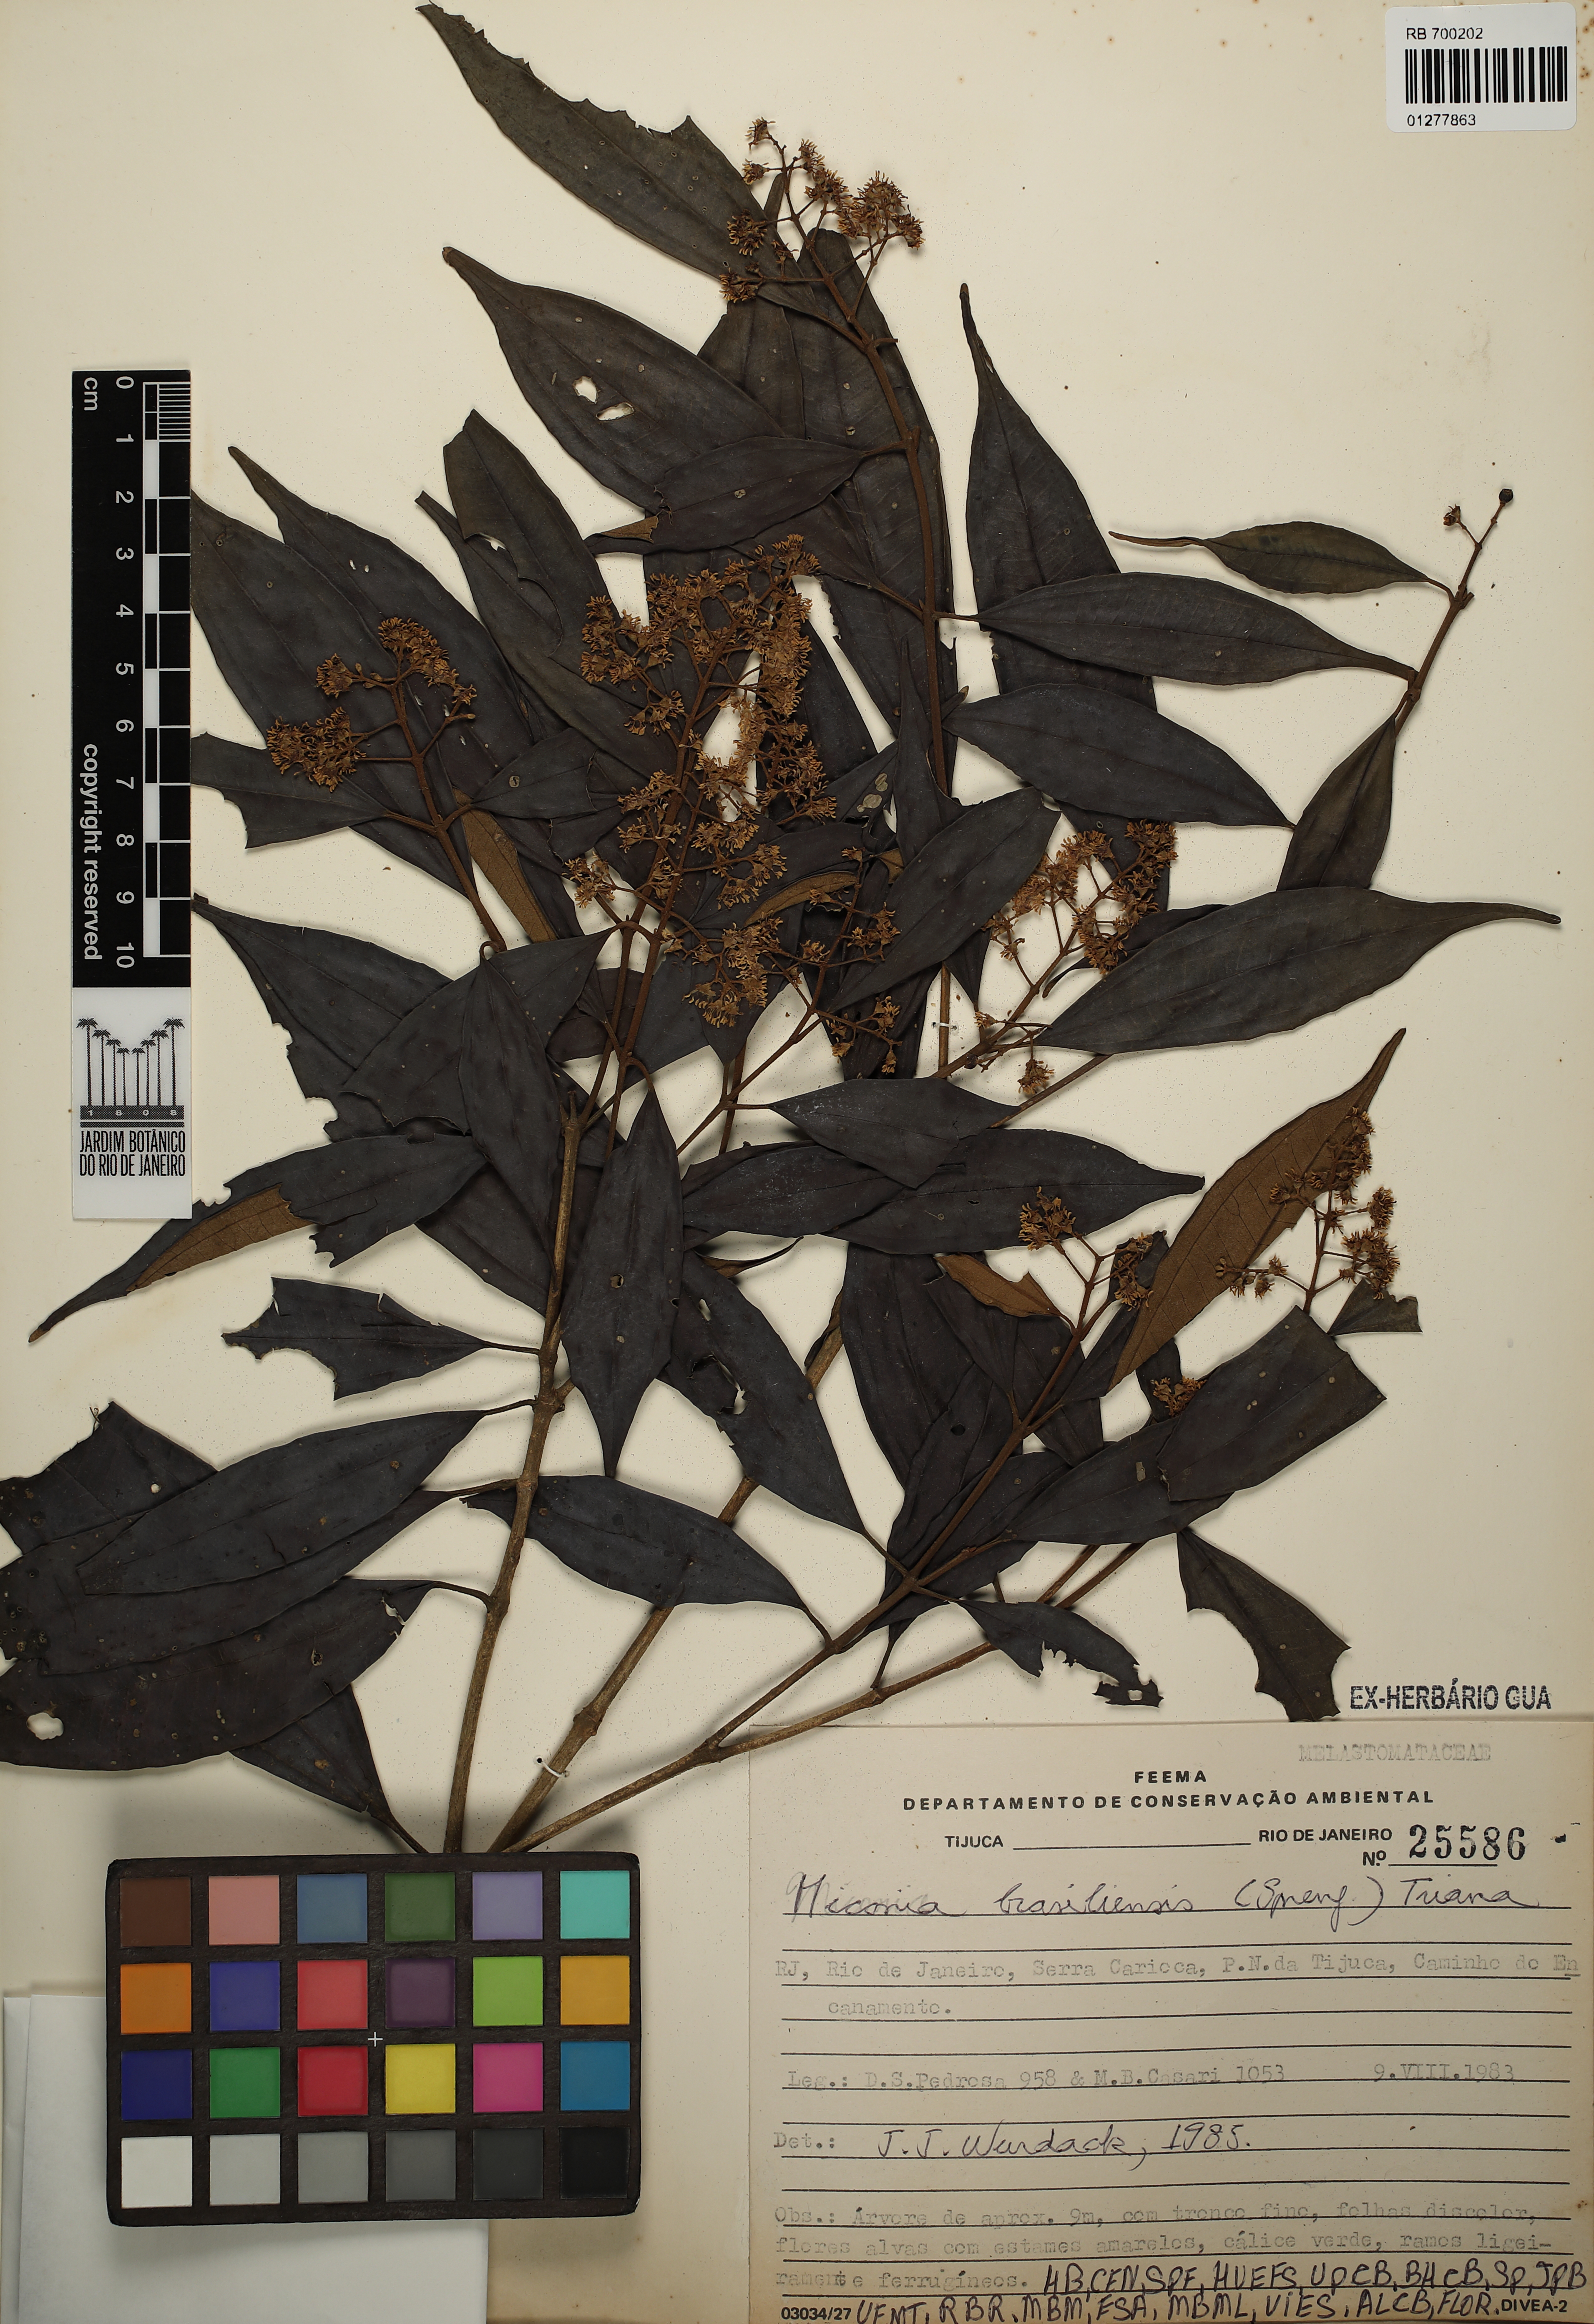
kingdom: Plantae
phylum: Tracheophyta
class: Magnoliopsida
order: Myrtales
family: Melastomataceae
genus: Miconia
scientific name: Miconia brasiliensis
